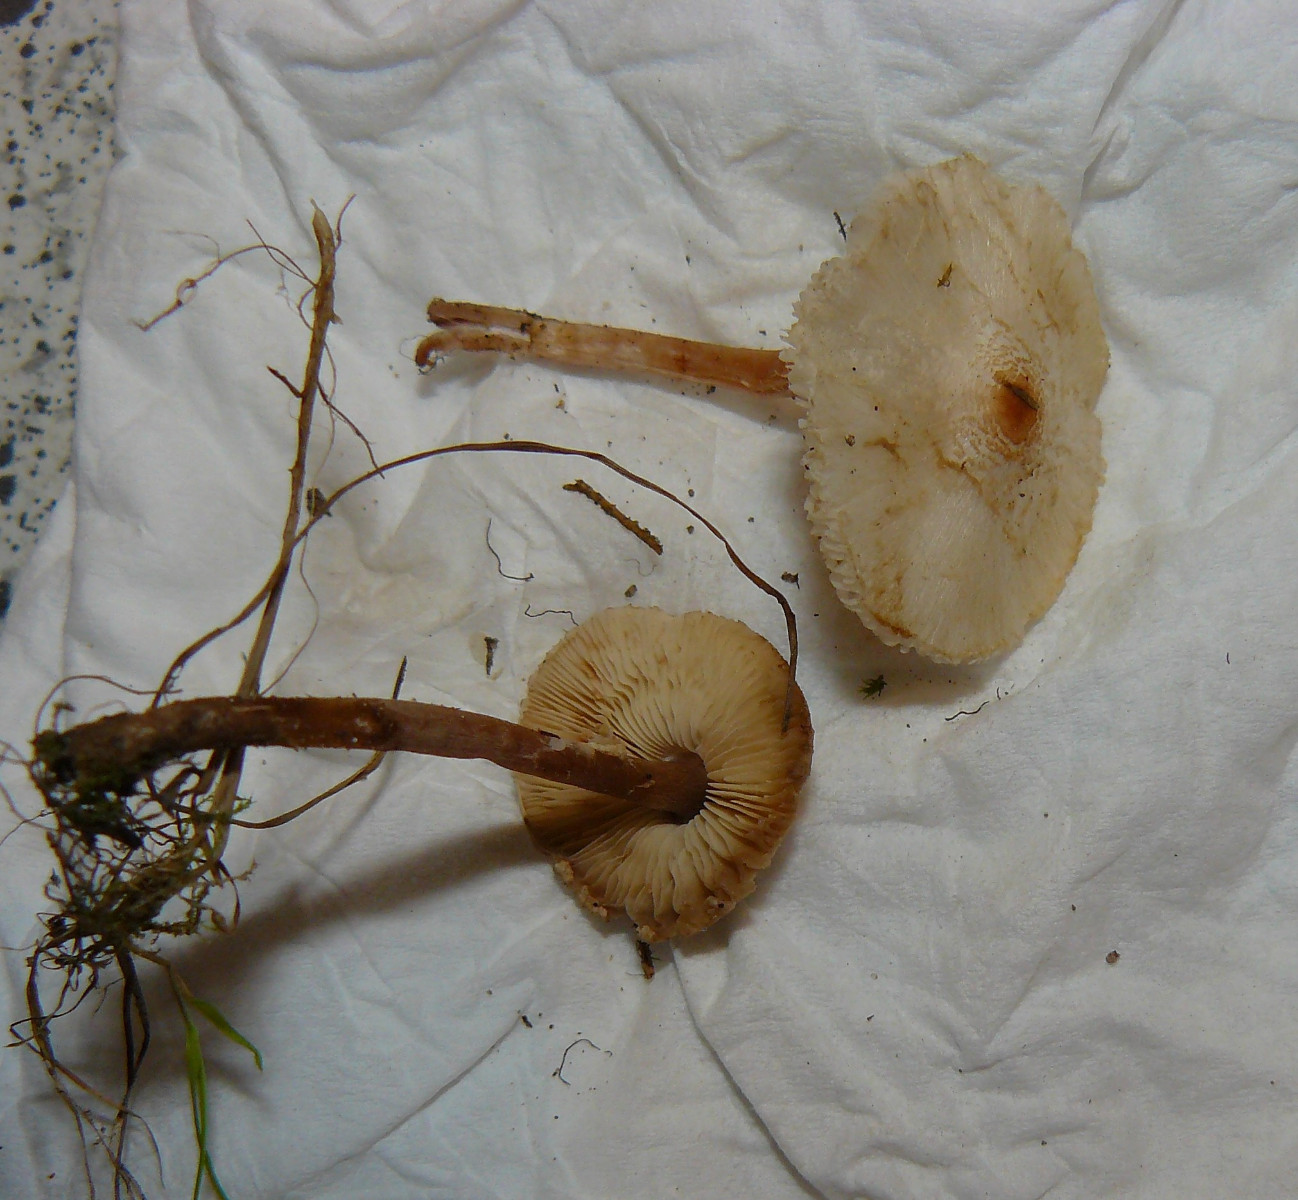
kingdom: Fungi
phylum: Basidiomycota
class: Agaricomycetes
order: Agaricales
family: Agaricaceae
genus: Lepiota
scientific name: Lepiota cristata
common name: stinkende parasolhat
